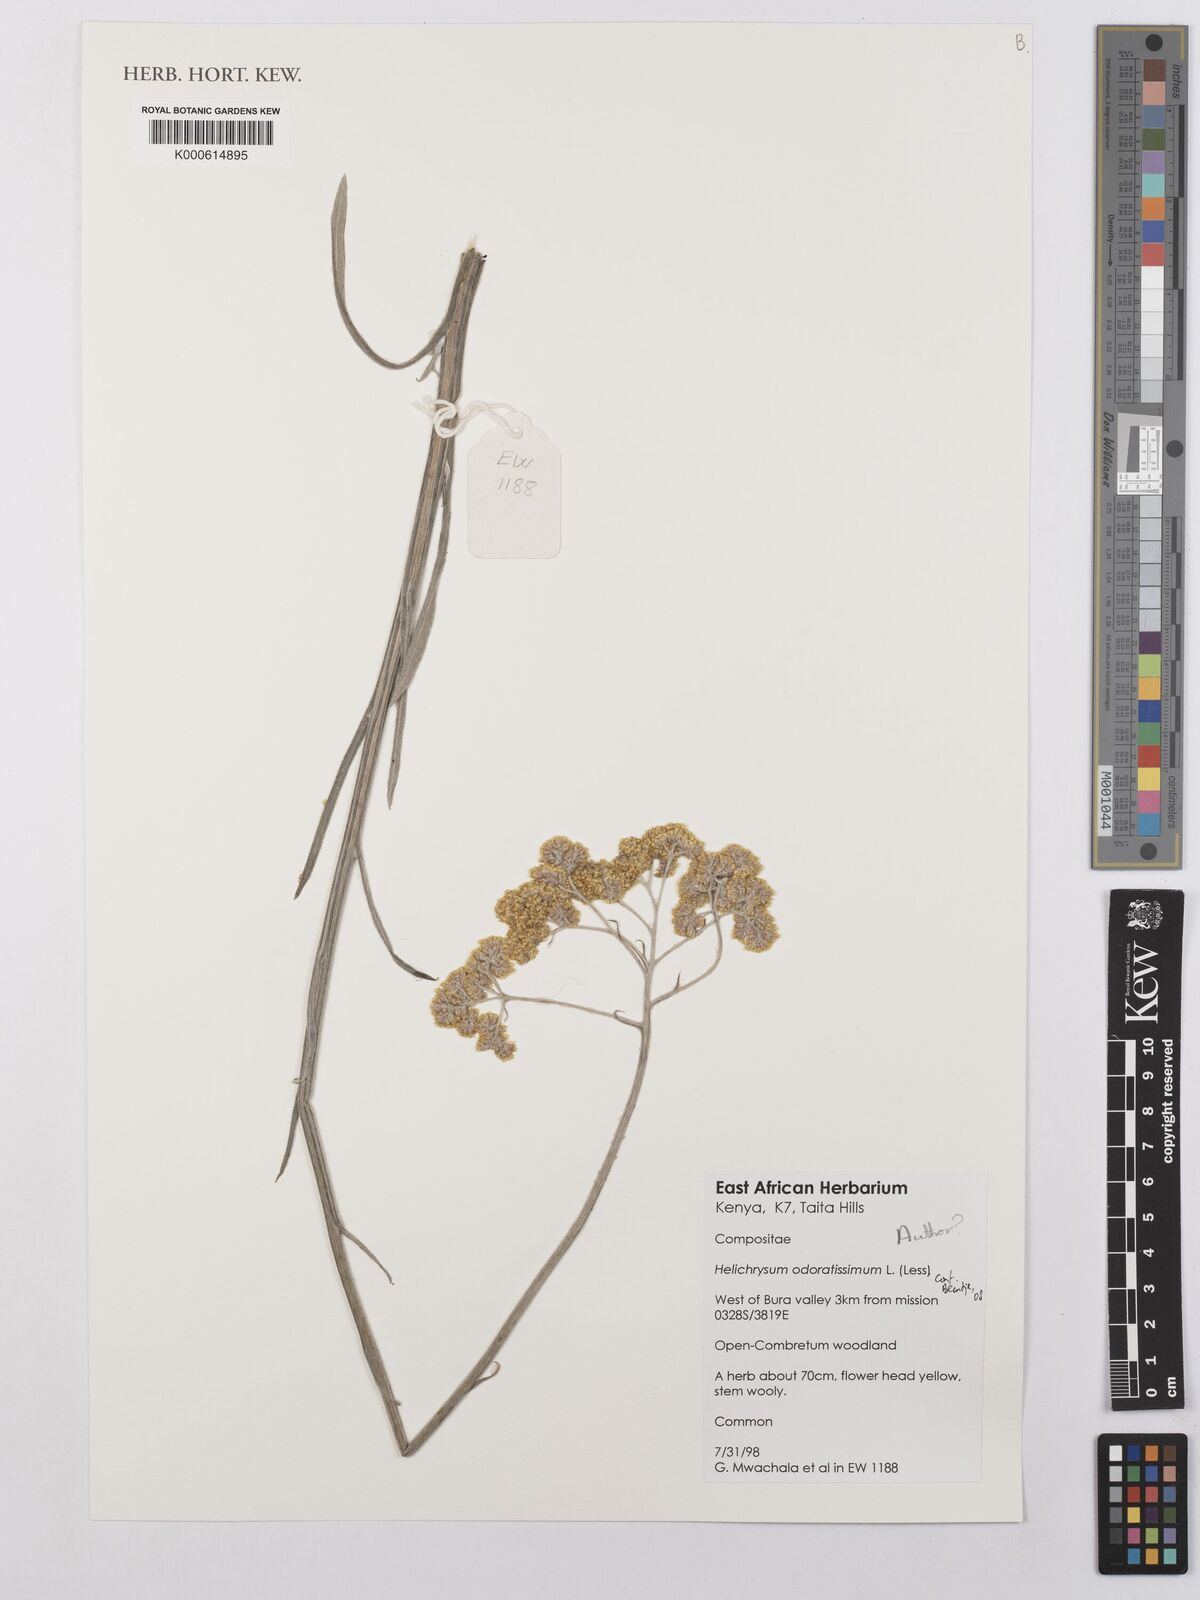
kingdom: Plantae
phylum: Tracheophyta
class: Magnoliopsida
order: Asterales
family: Asteraceae
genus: Helichrysum
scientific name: Helichrysum
